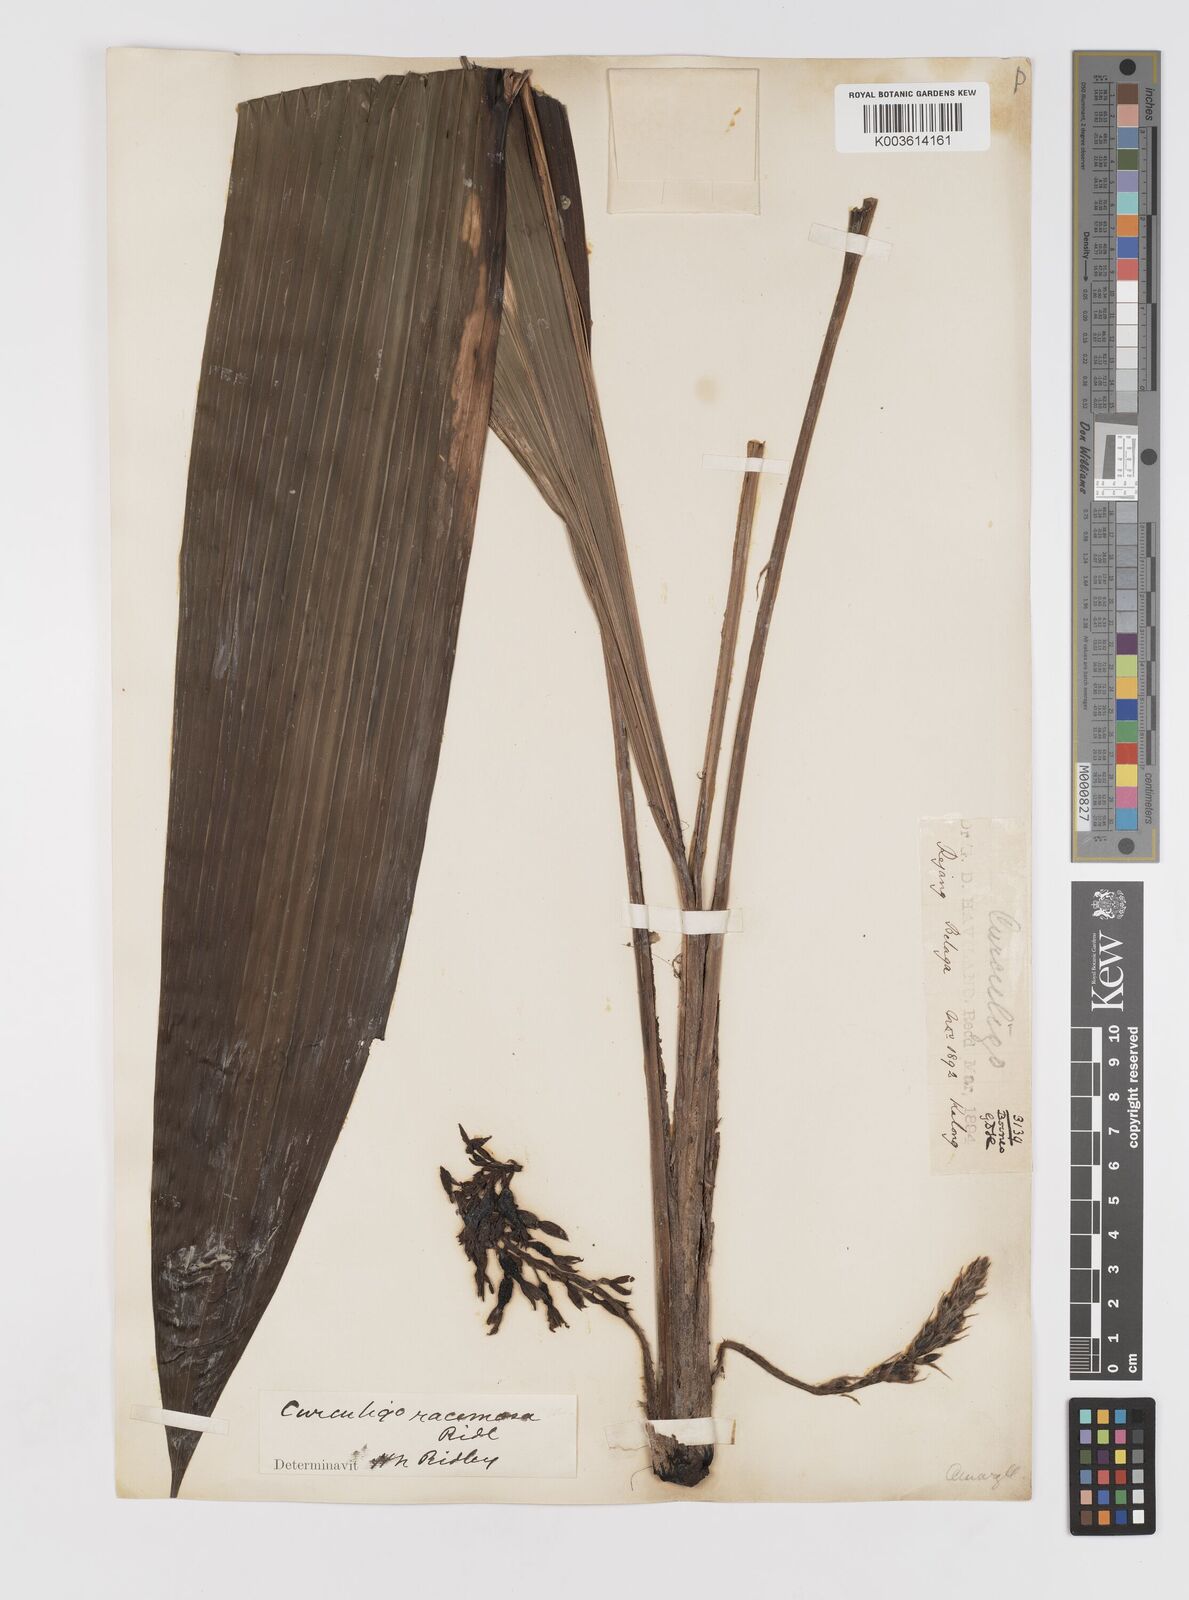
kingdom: Plantae
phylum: Tracheophyta
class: Liliopsida
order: Asparagales
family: Hypoxidaceae
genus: Curculigo
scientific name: Curculigo racemosa
